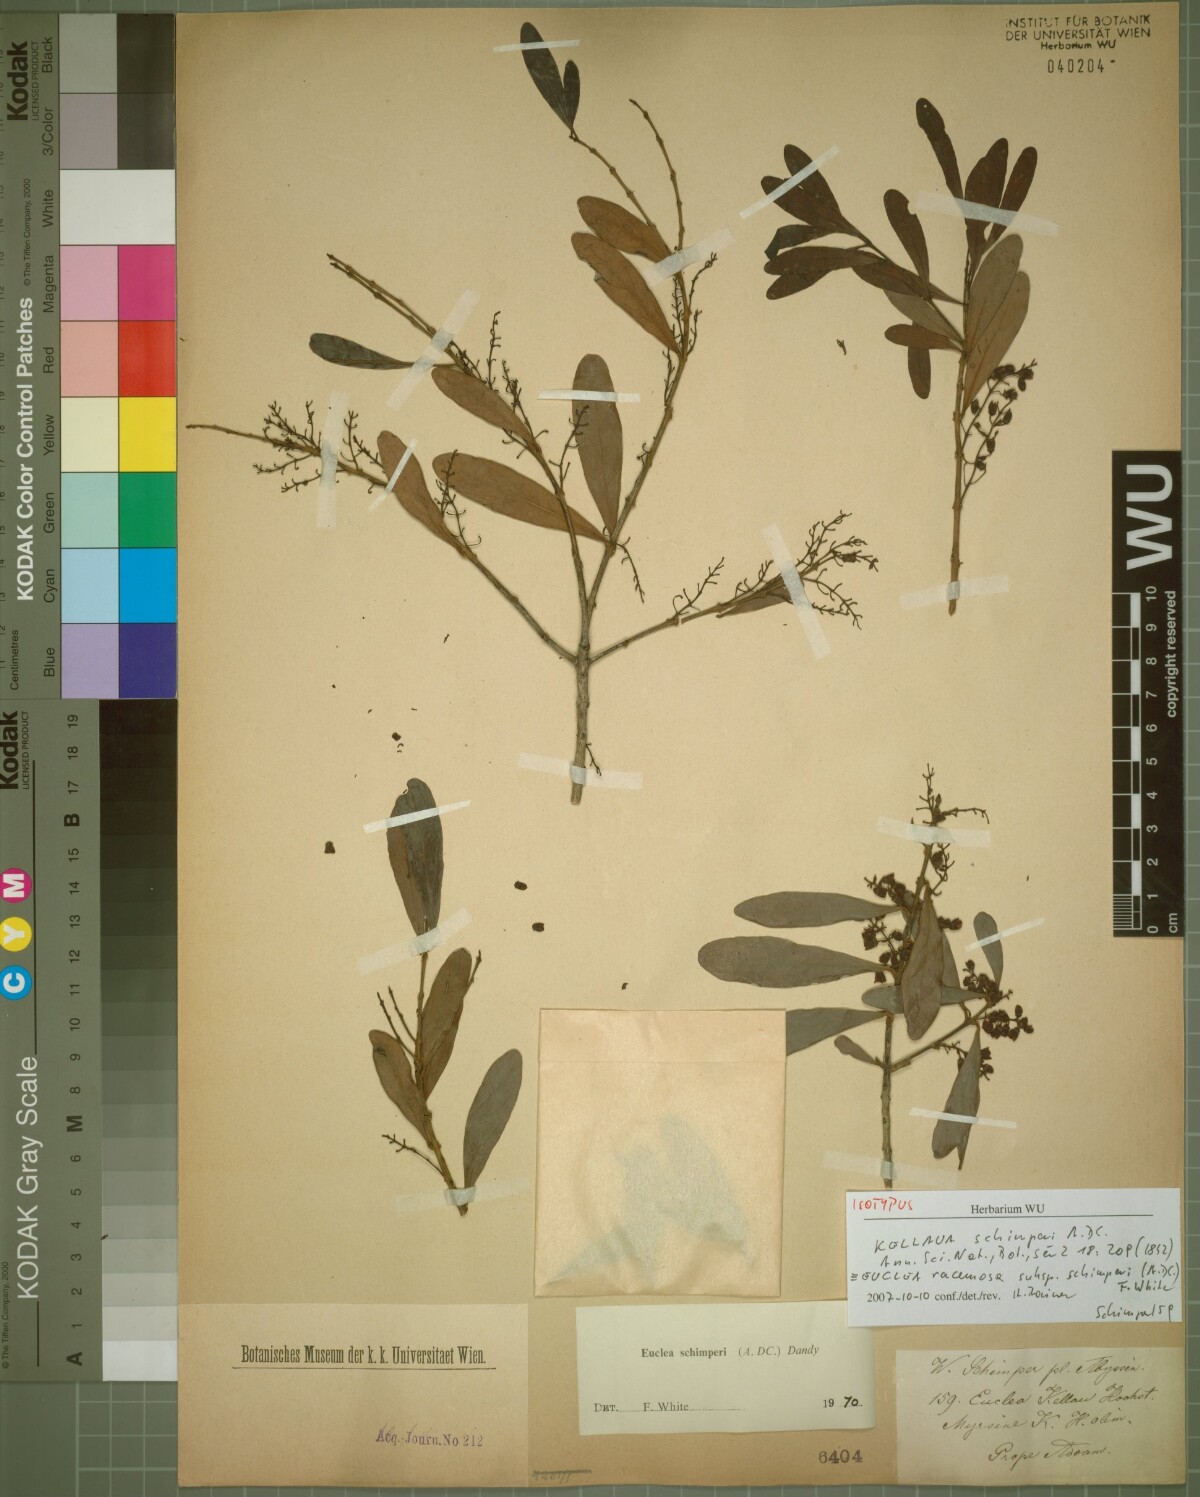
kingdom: Plantae
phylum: Tracheophyta
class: Magnoliopsida
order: Ericales
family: Ebenaceae
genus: Euclea
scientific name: Euclea racemosa
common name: Dune guarri
